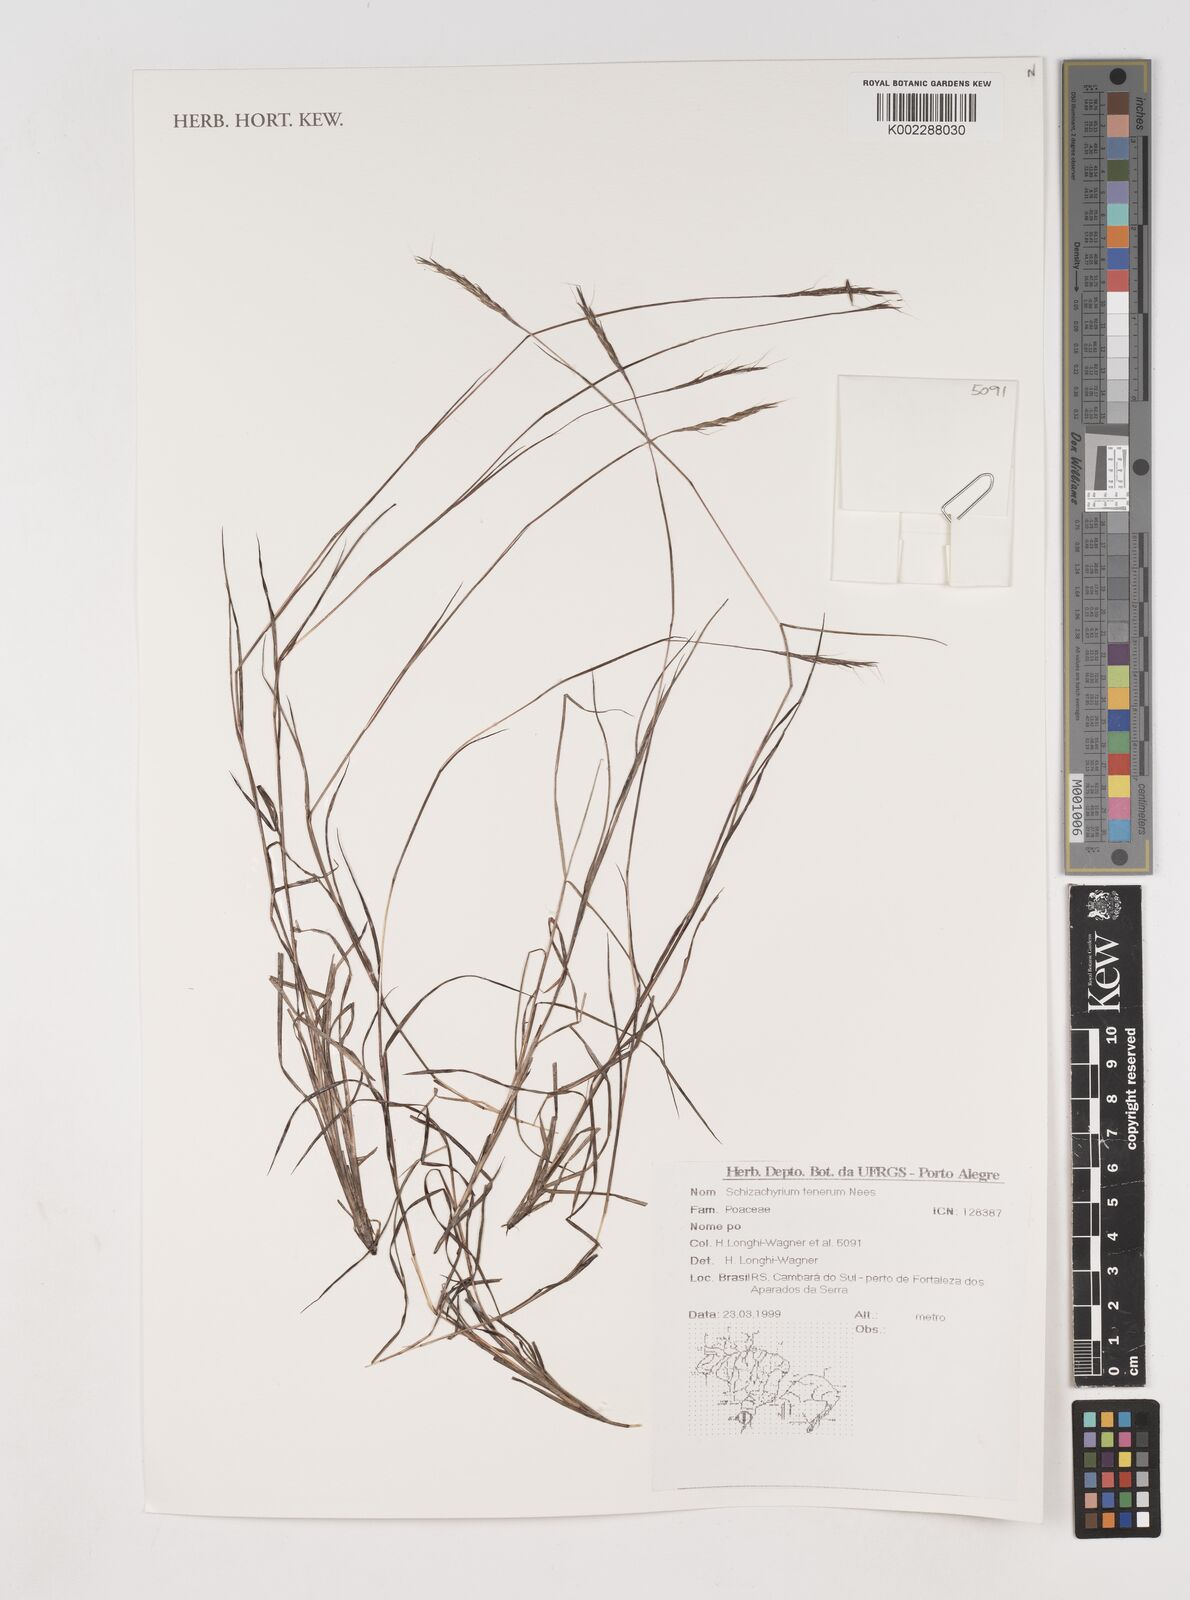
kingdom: Plantae
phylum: Tracheophyta
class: Liliopsida
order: Poales
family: Poaceae
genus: Andropogon
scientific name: Andropogon tener
